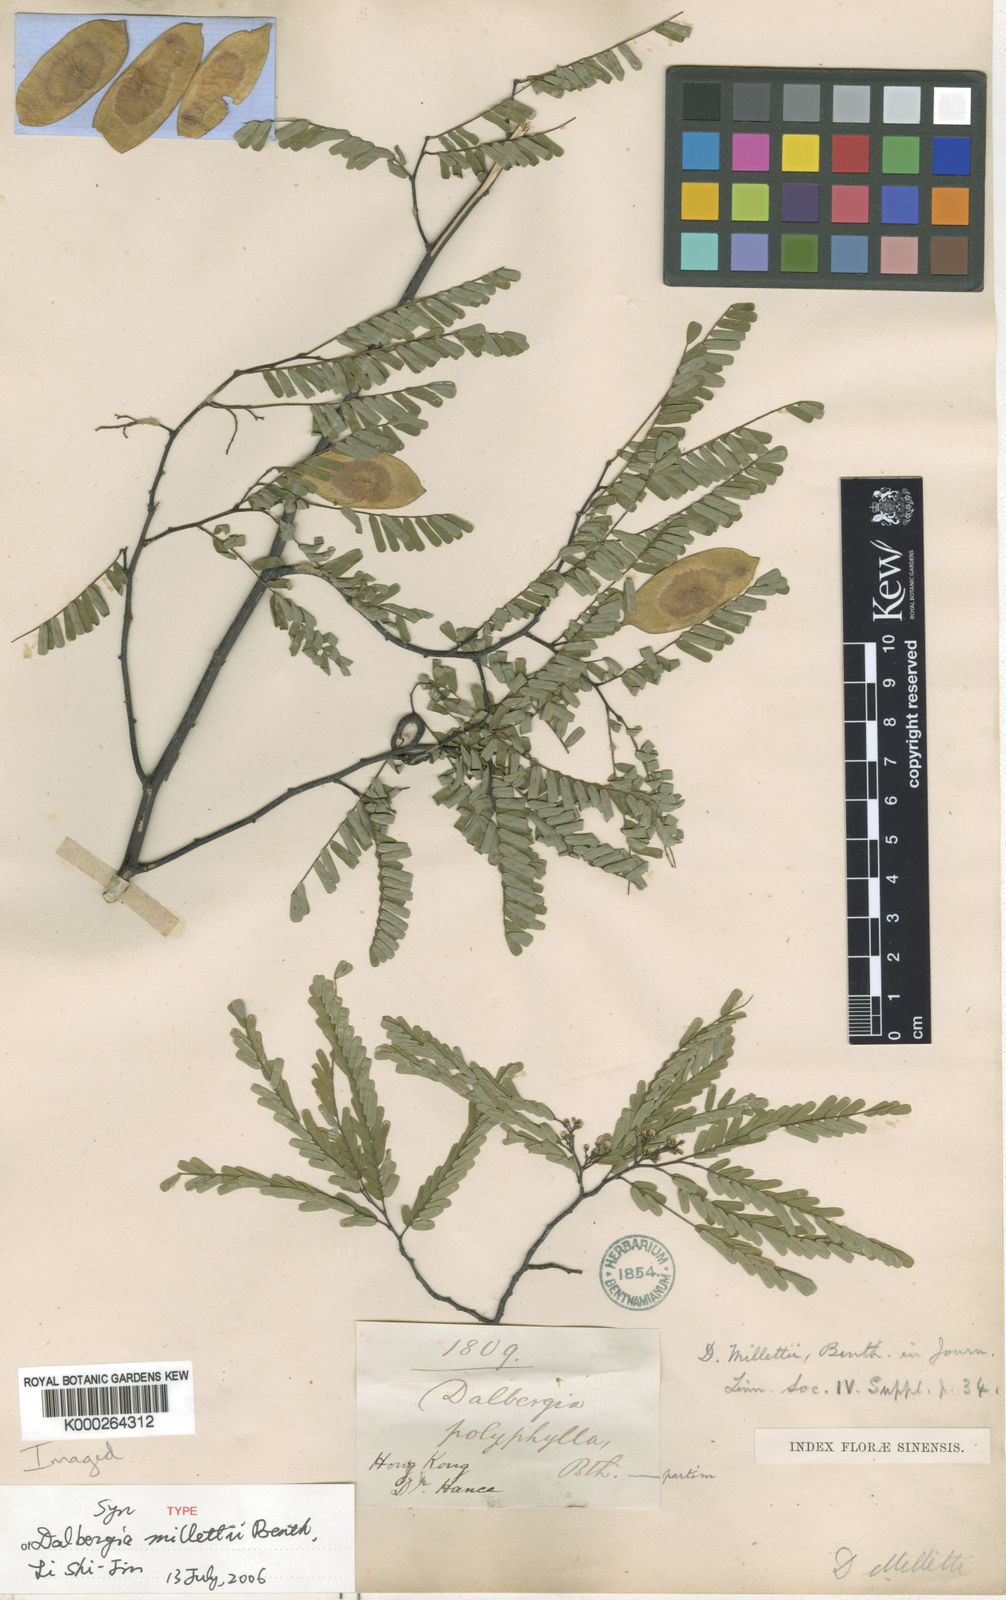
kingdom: Plantae
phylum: Tracheophyta
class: Magnoliopsida
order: Fabales
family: Fabaceae
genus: Dalbergia
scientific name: Dalbergia millettii
